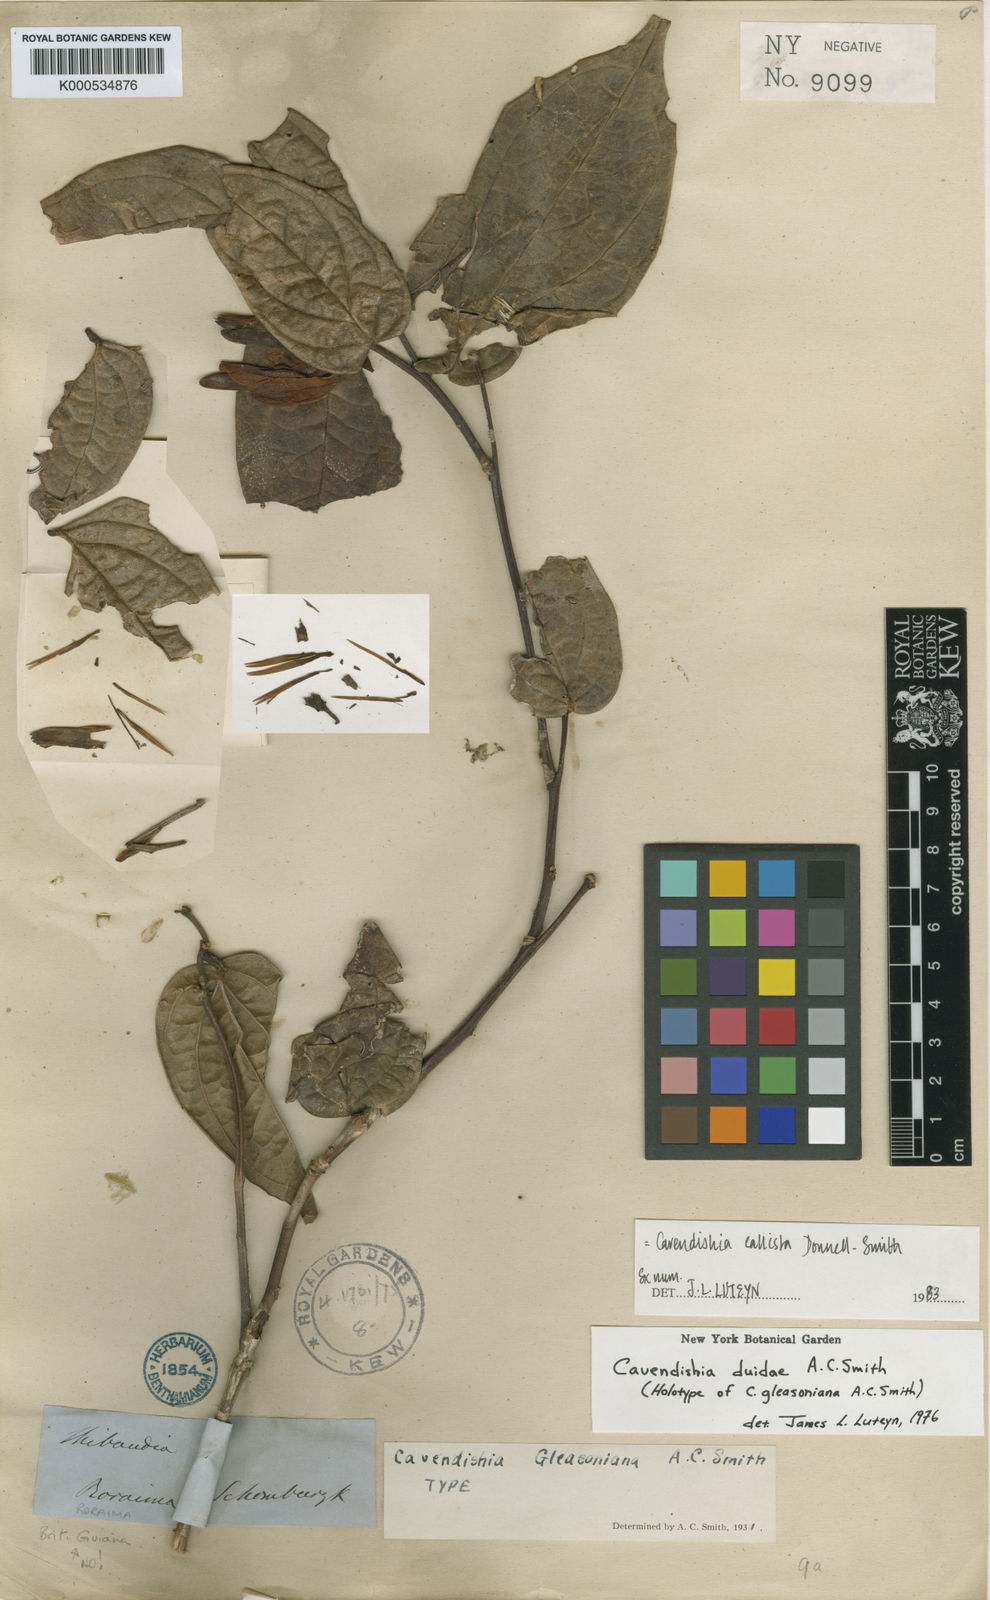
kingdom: Plantae
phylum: Tracheophyta
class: Magnoliopsida
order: Ericales
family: Ericaceae
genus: Cavendishia
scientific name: Cavendishia callista
